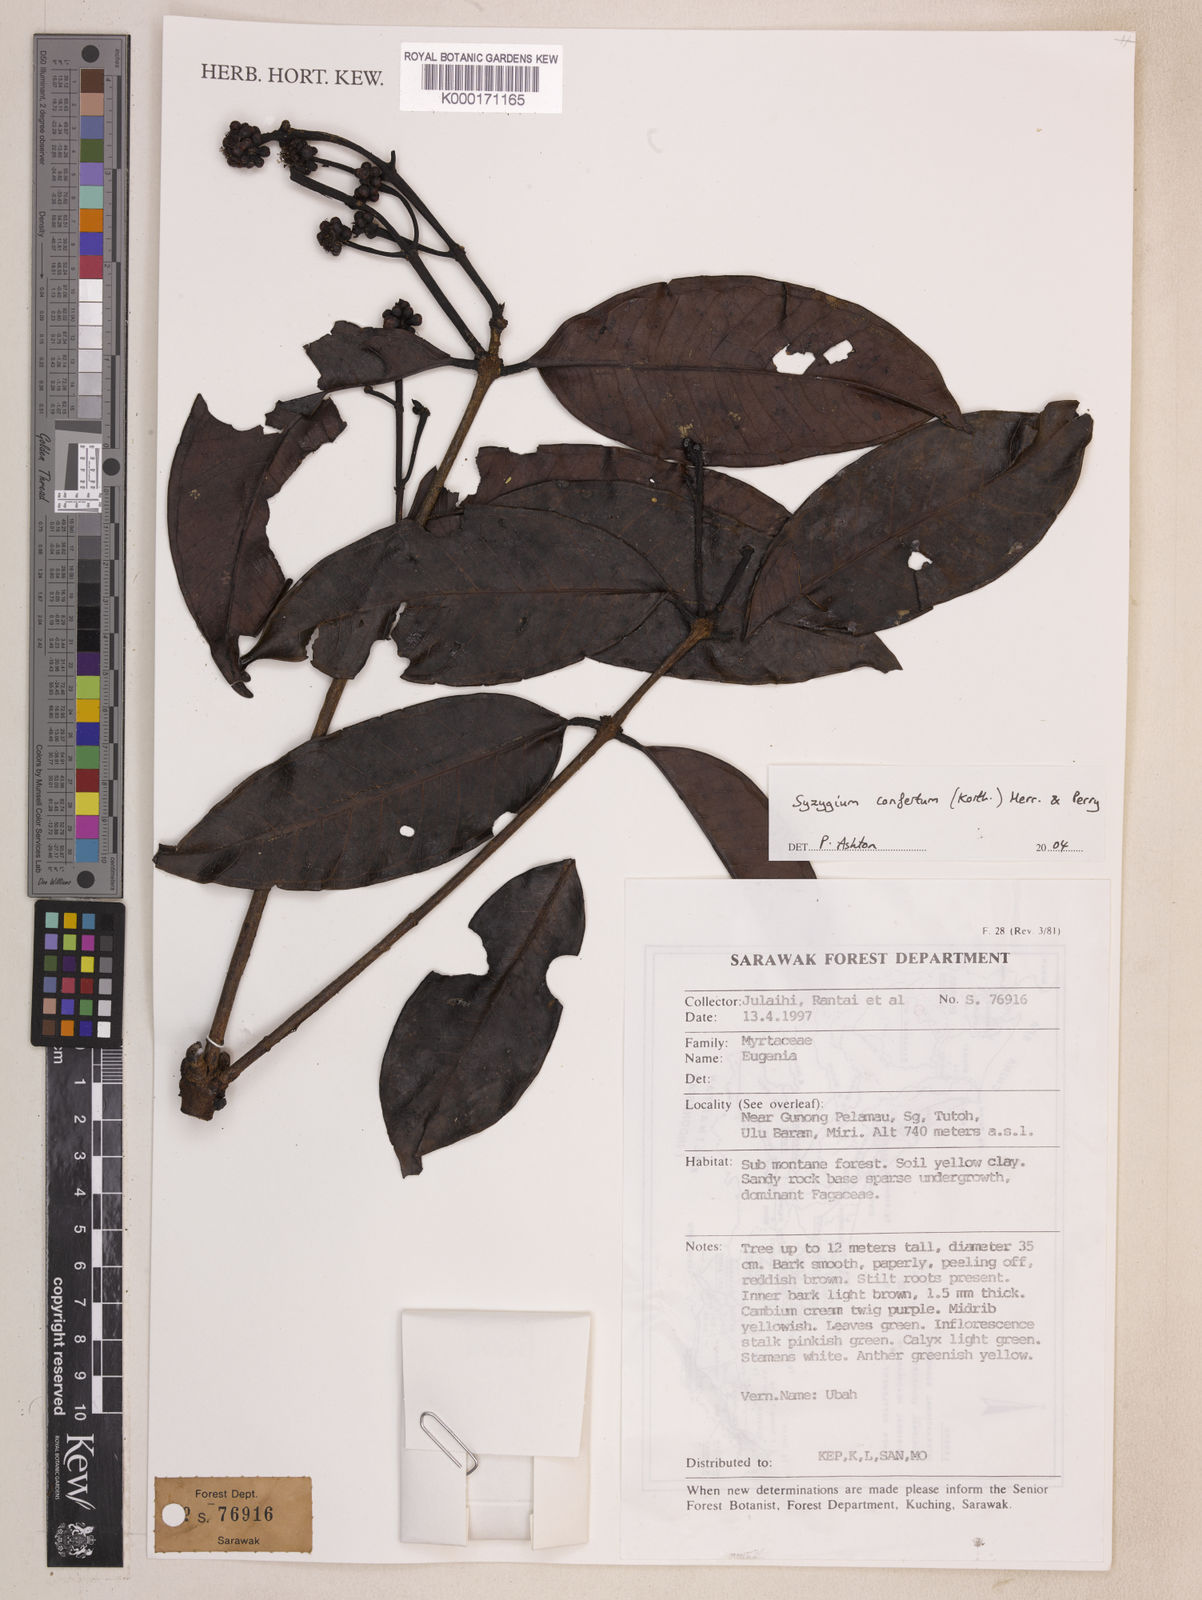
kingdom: Plantae
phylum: Tracheophyta
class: Magnoliopsida
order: Myrtales
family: Myrtaceae
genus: Syzygium
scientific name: Syzygium confertum
